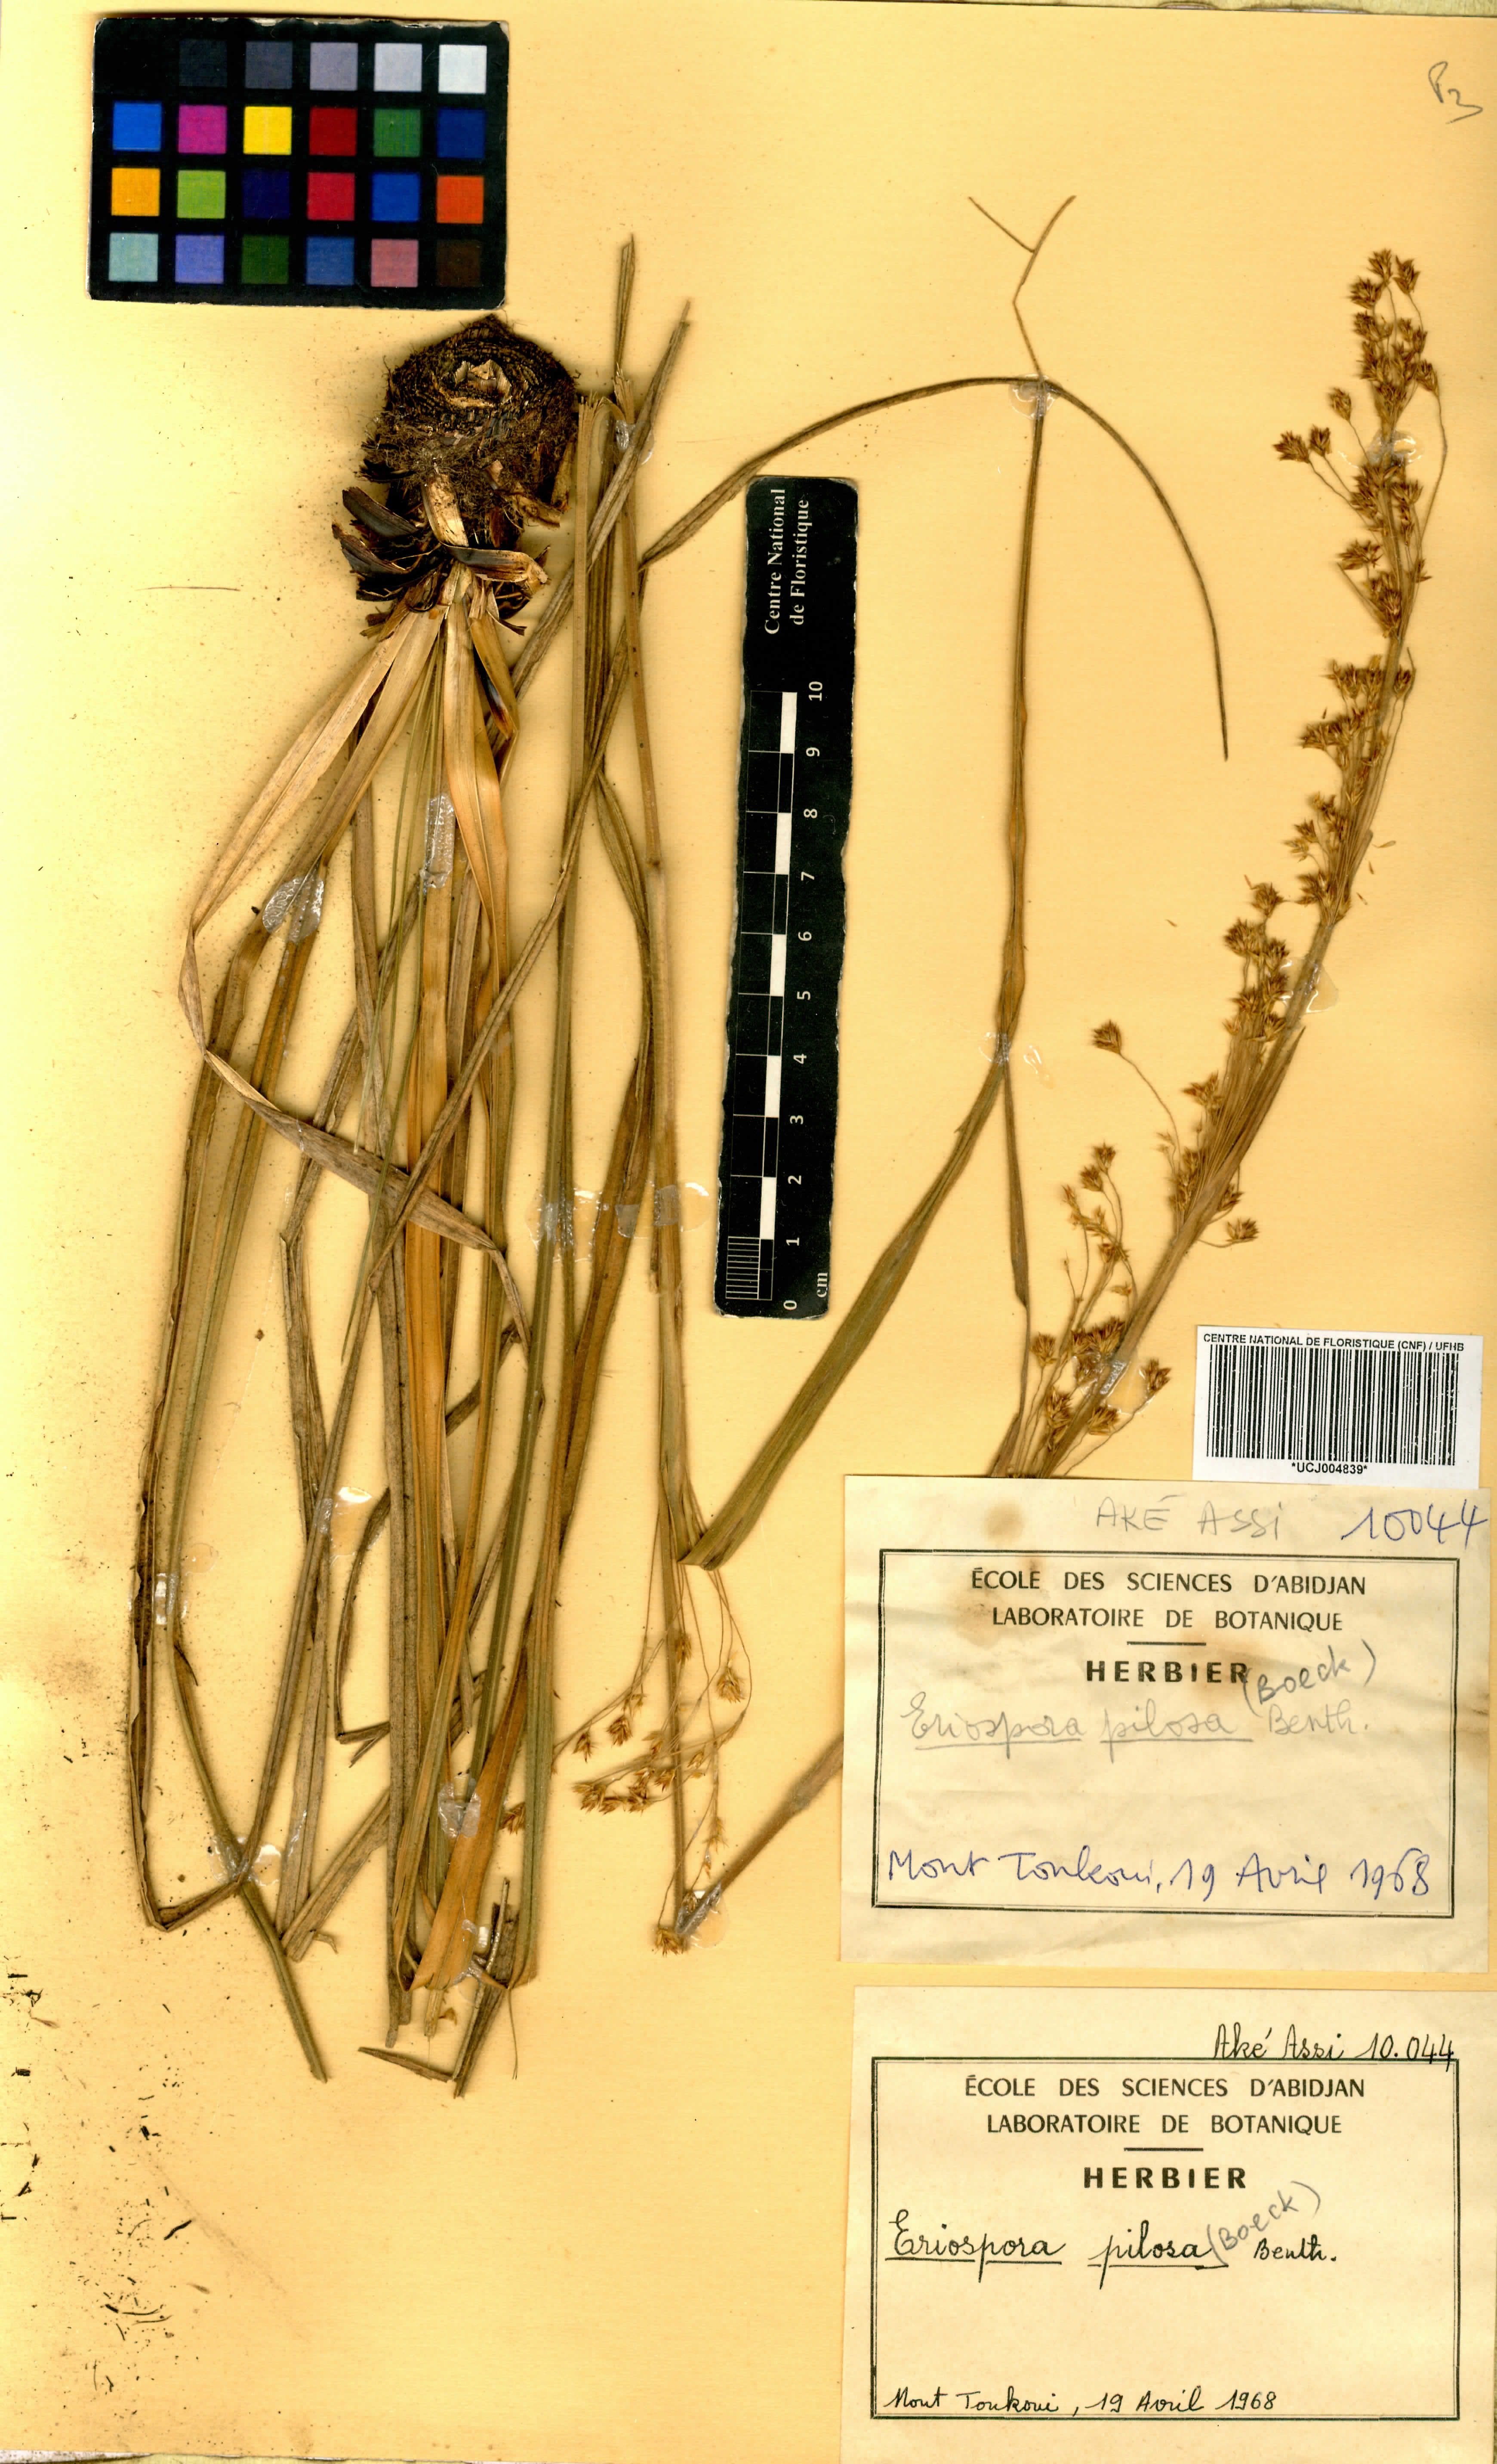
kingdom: Plantae
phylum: Tracheophyta
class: Liliopsida
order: Poales
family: Cyperaceae
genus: Afrotrilepis
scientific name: Afrotrilepis pilosa
